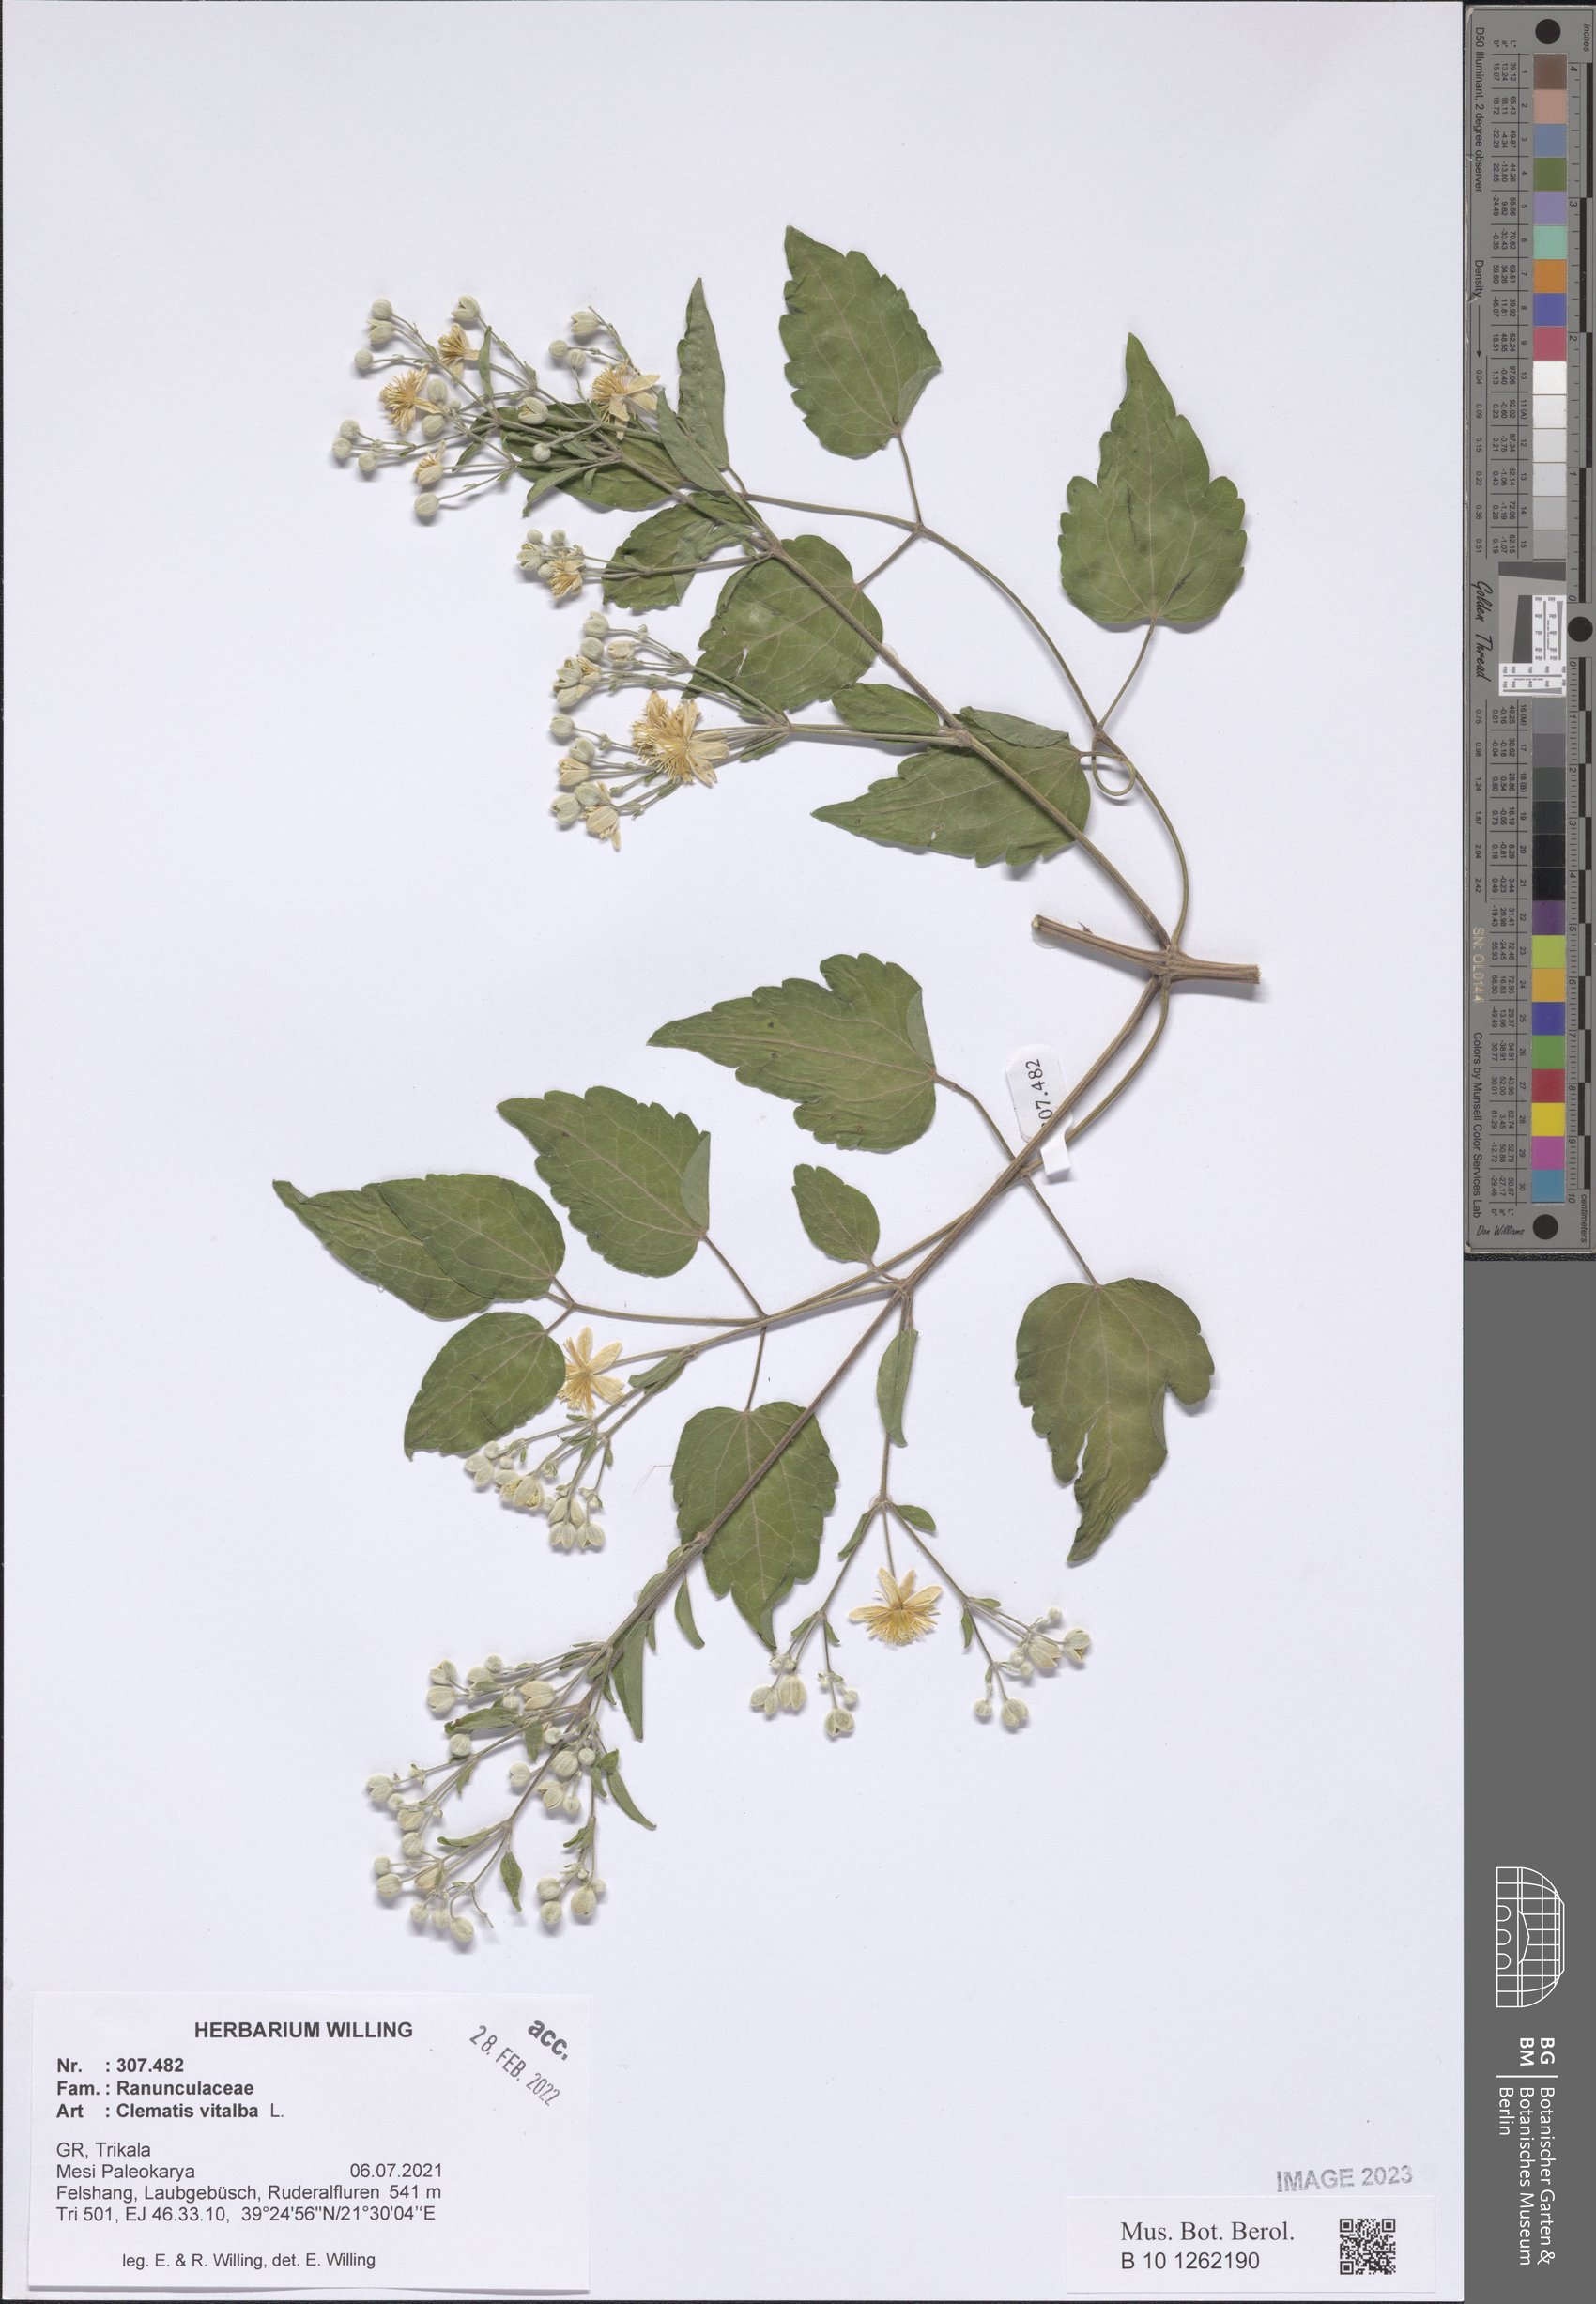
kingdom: Plantae
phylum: Tracheophyta
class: Magnoliopsida
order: Ranunculales
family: Ranunculaceae
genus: Clematis
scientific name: Clematis vitalba
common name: Evergreen clematis
